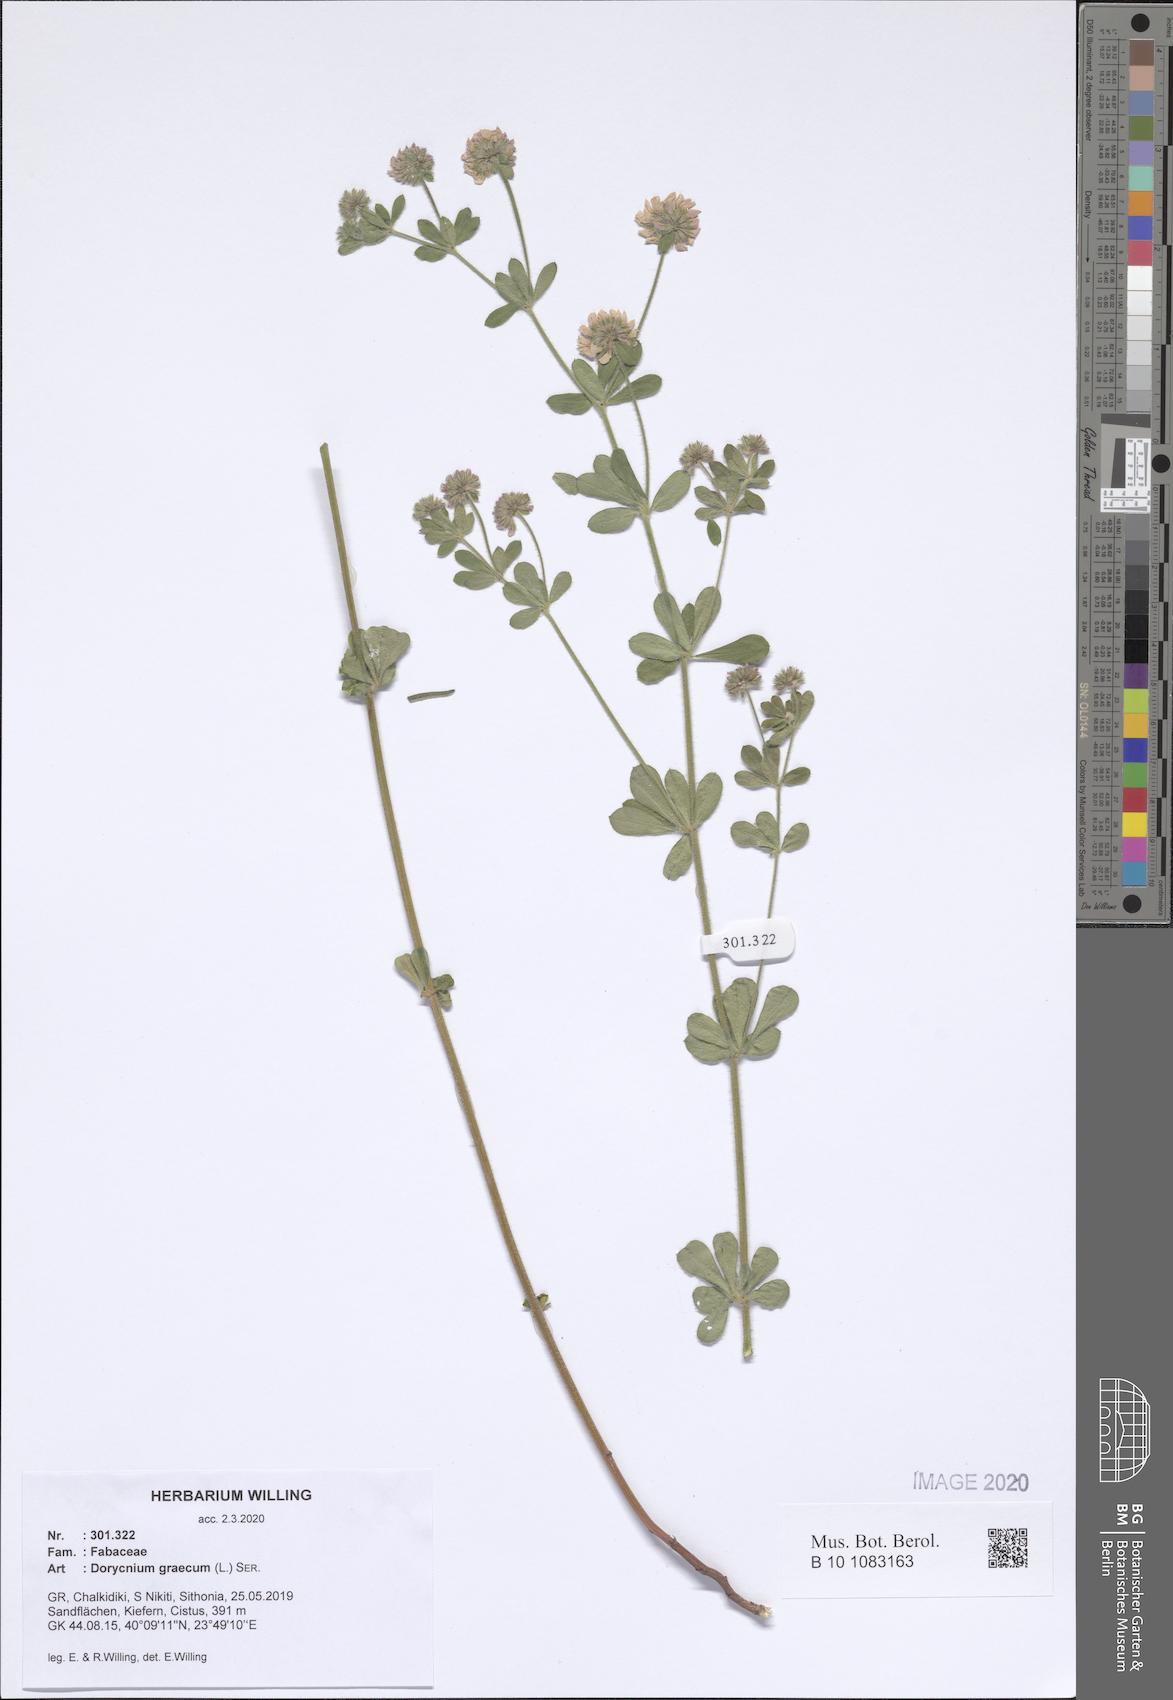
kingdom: Plantae
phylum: Tracheophyta
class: Magnoliopsida
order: Fabales
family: Fabaceae
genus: Lotus
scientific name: Lotus graecus
